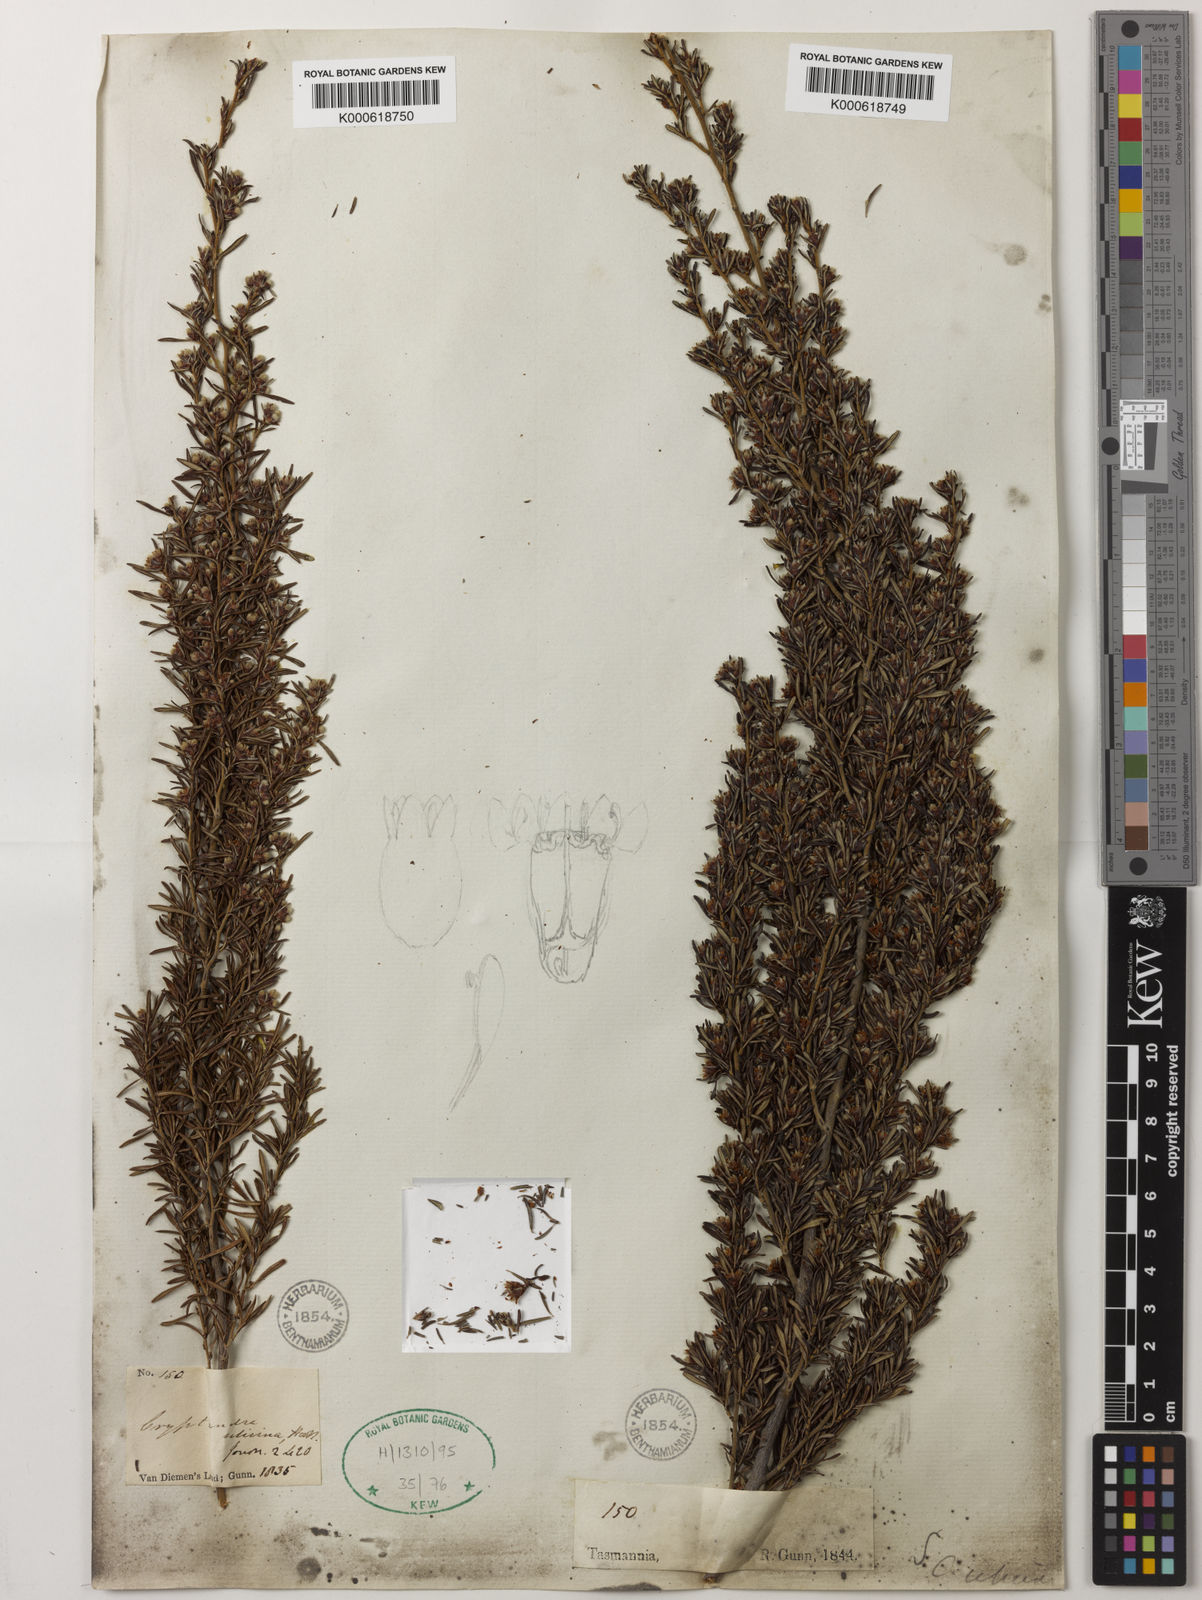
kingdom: Plantae
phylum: Tracheophyta
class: Magnoliopsida
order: Rosales
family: Rhamnaceae
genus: Spyridium
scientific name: Spyridium ulicinum
